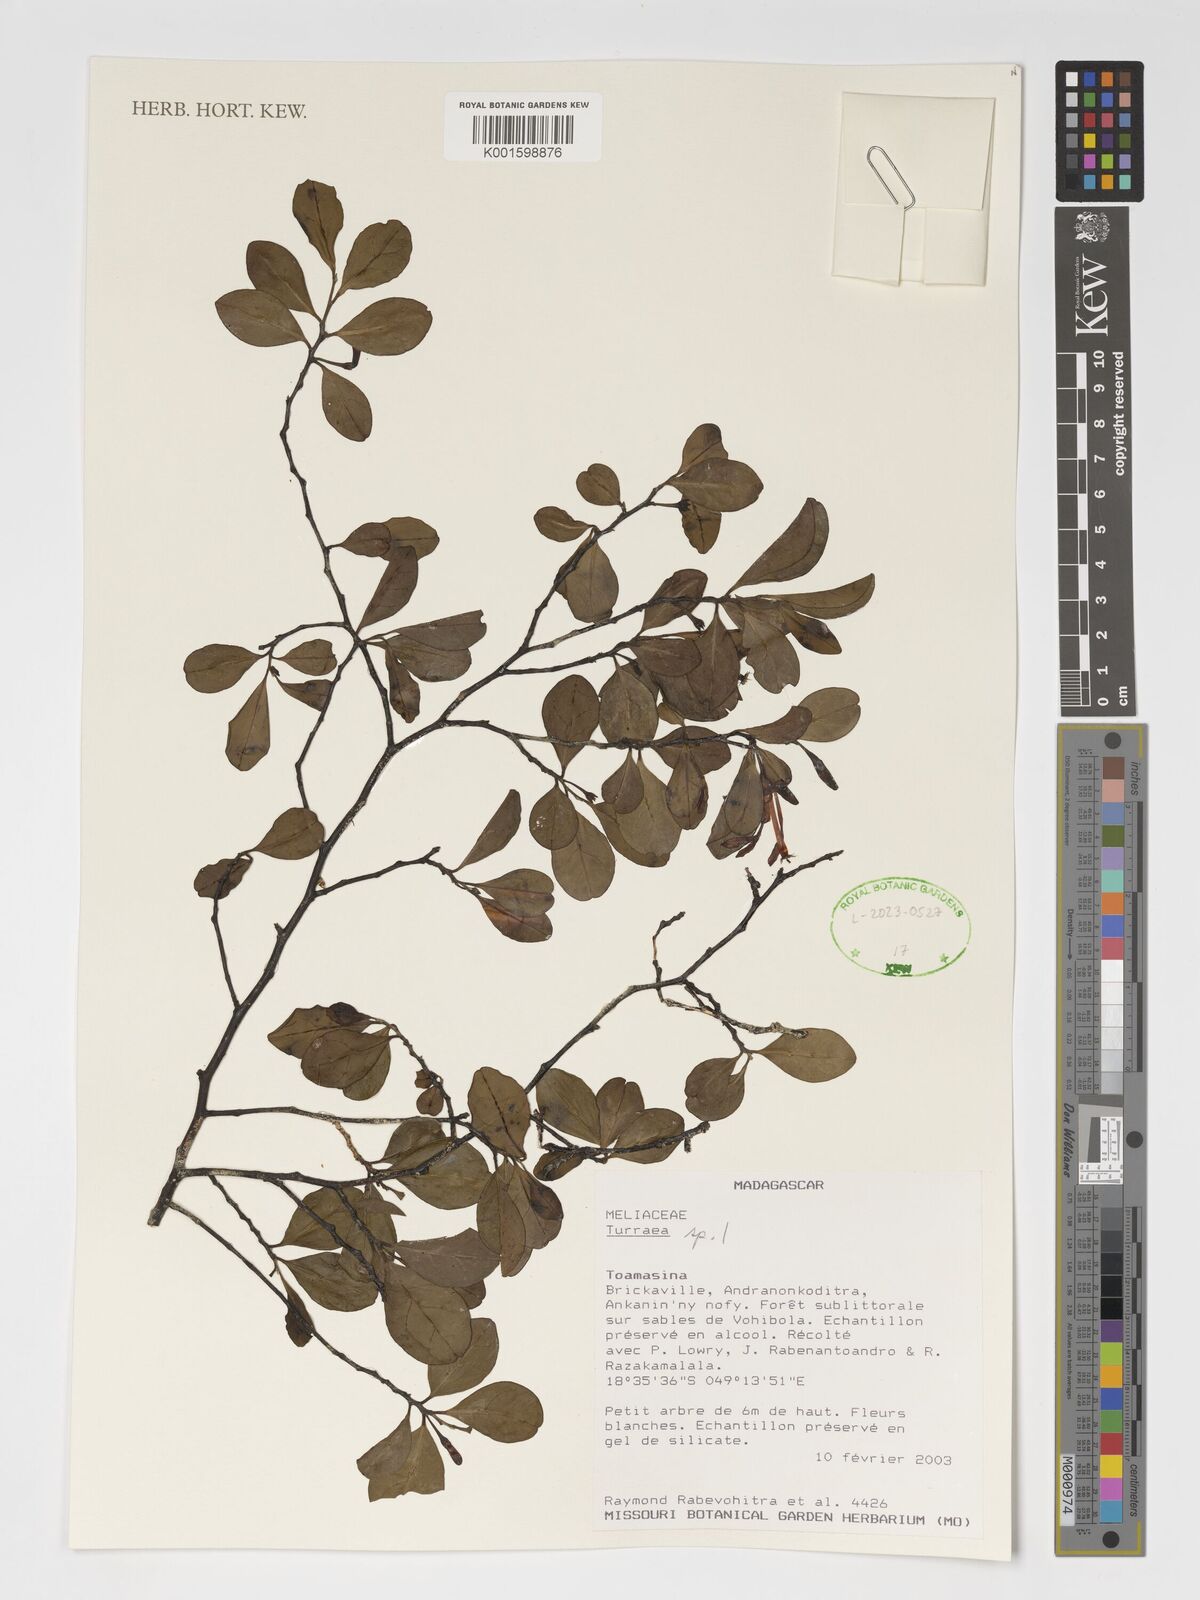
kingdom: Plantae
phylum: Tracheophyta
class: Magnoliopsida
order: Sapindales
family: Meliaceae
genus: Turraea
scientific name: Turraea
